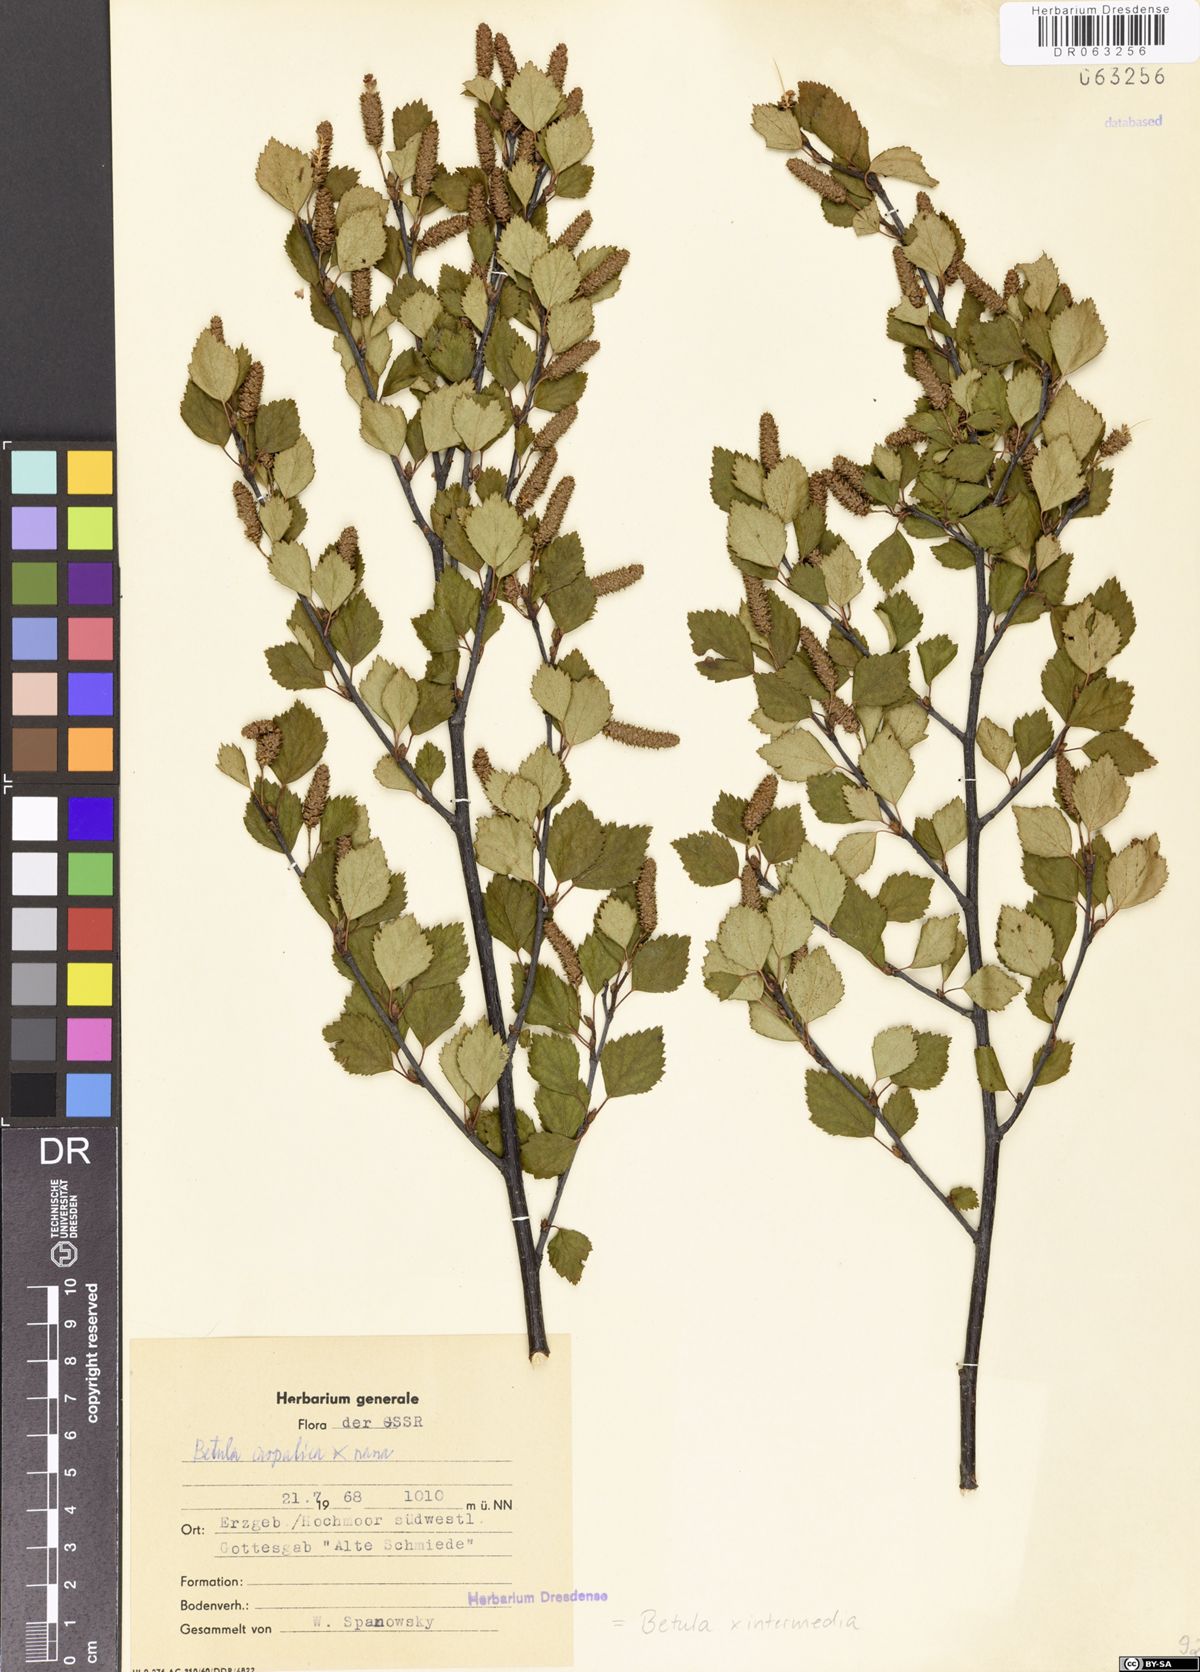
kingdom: Plantae
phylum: Tracheophyta
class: Magnoliopsida
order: Fagales
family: Betulaceae
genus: Betula
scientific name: Betula intermedia
